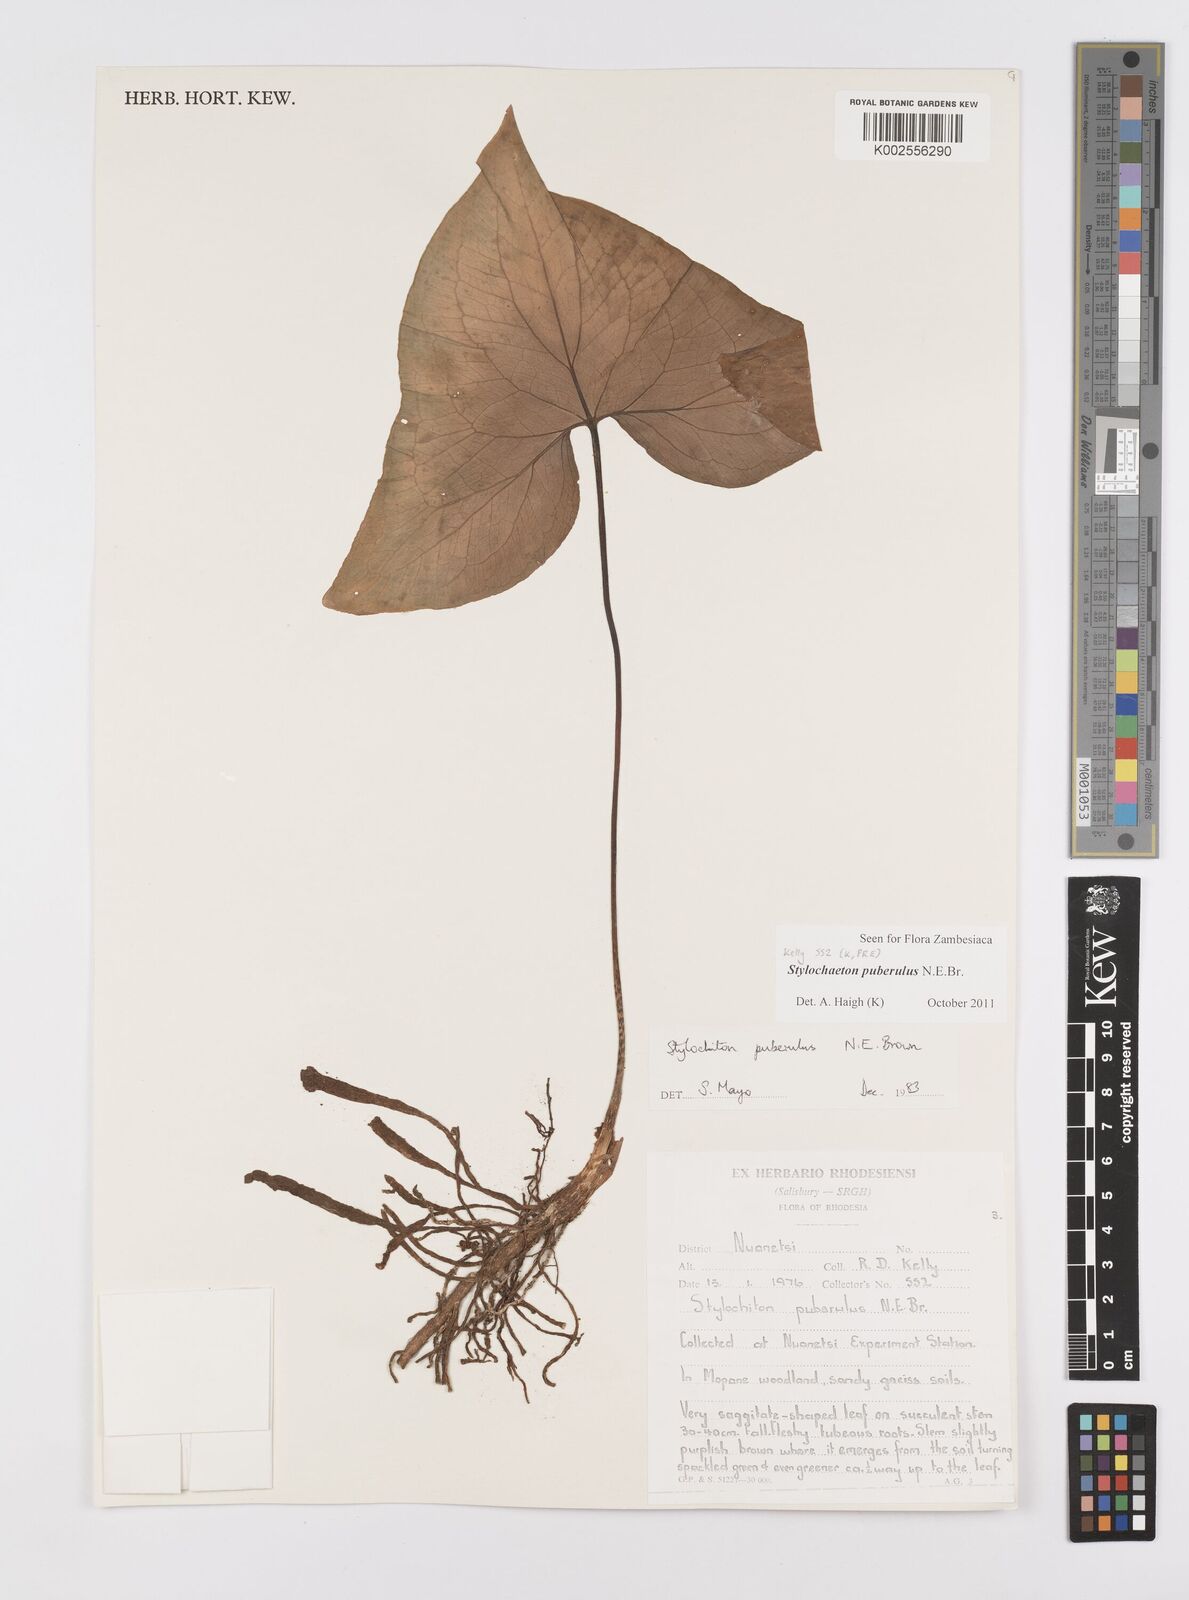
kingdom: Plantae
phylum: Tracheophyta
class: Liliopsida
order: Alismatales
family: Araceae
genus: Stylochaeton
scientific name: Stylochaeton puberulum
